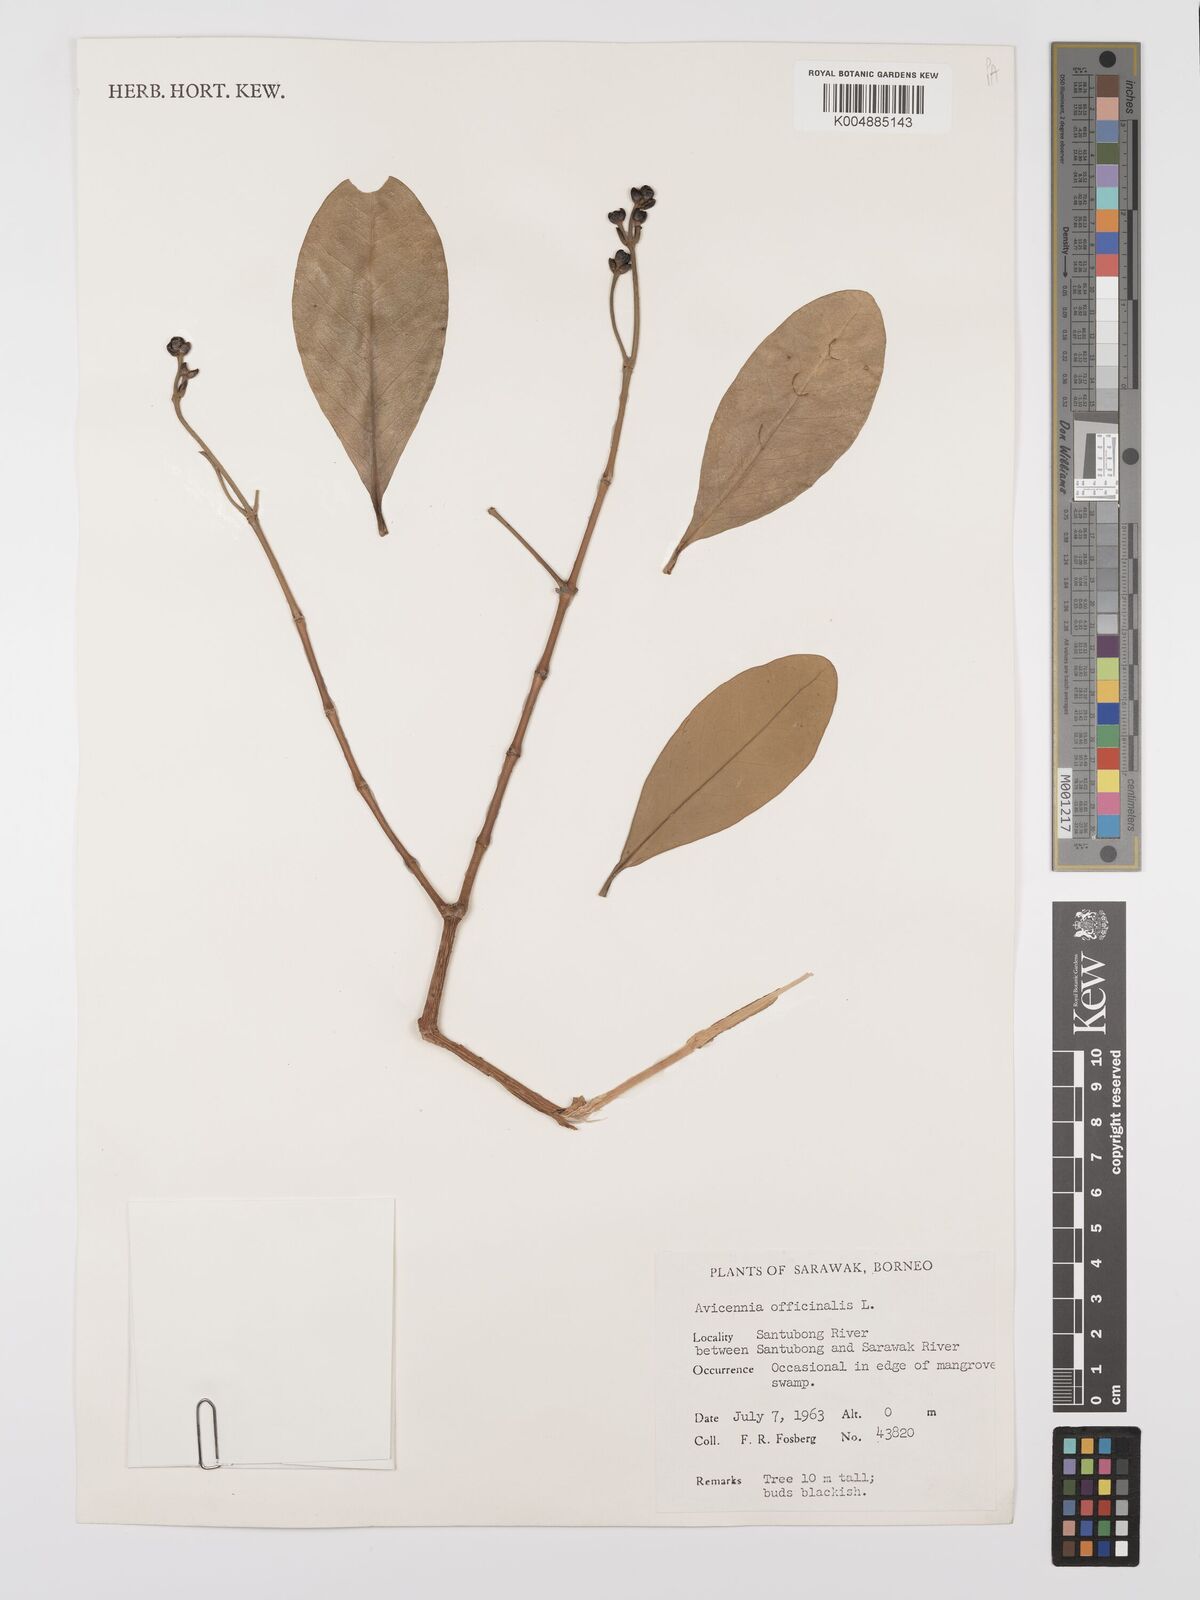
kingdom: Plantae
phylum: Tracheophyta
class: Magnoliopsida
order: Lamiales
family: Acanthaceae
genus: Avicennia
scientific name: Avicennia officinalis
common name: Baen
